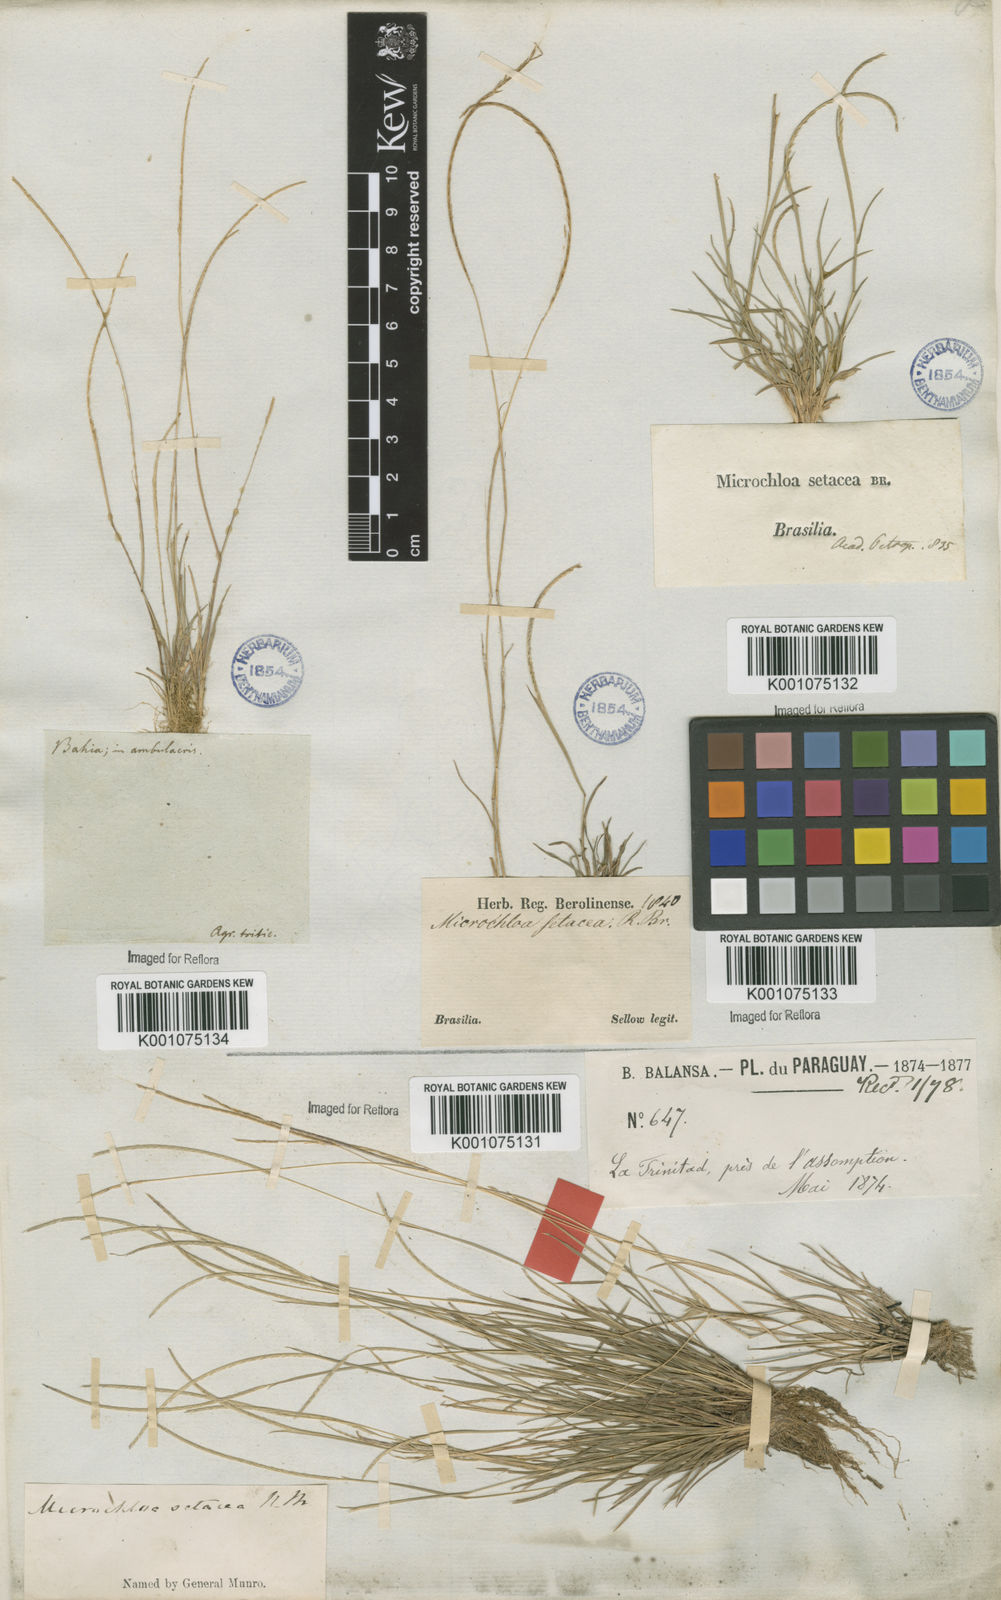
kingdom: Plantae
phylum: Tracheophyta
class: Liliopsida
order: Poales
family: Poaceae
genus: Microchloa
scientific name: Microchloa indica
